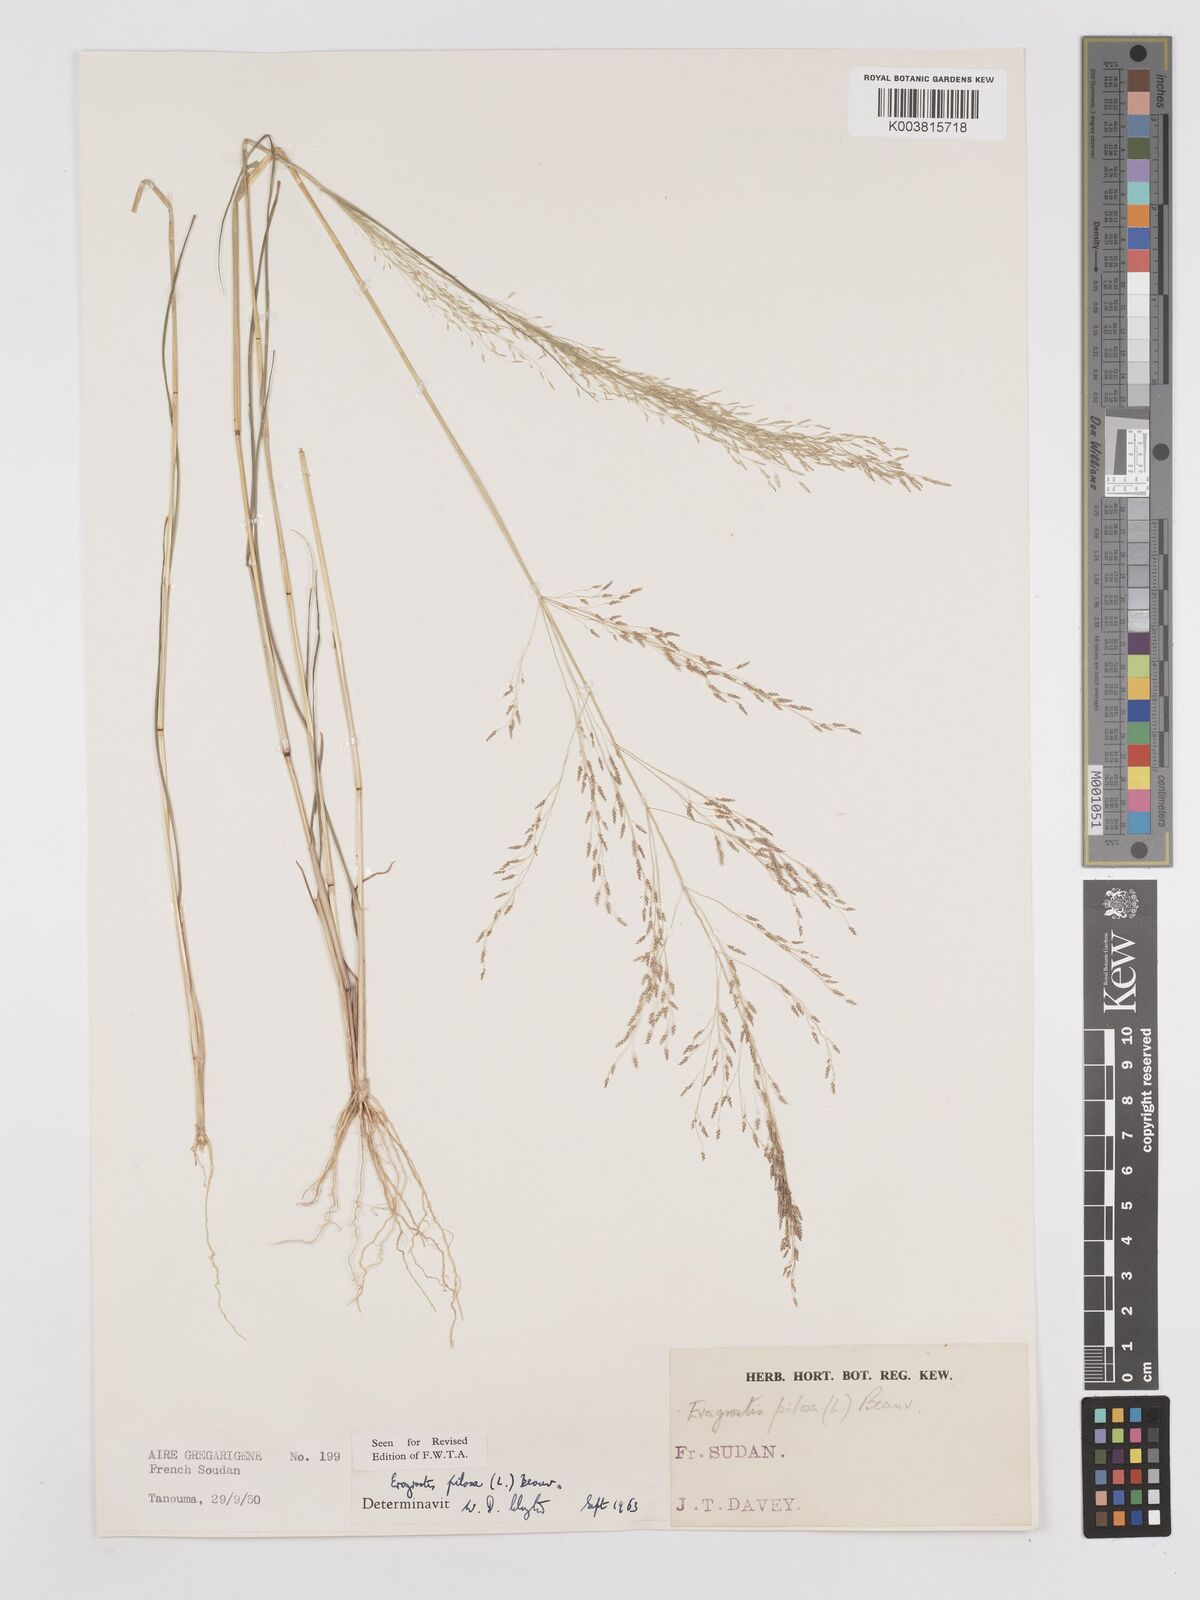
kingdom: Plantae
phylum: Tracheophyta
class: Liliopsida
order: Poales
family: Poaceae
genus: Eragrostis
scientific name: Eragrostis pilosa
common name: Indian lovegrass
